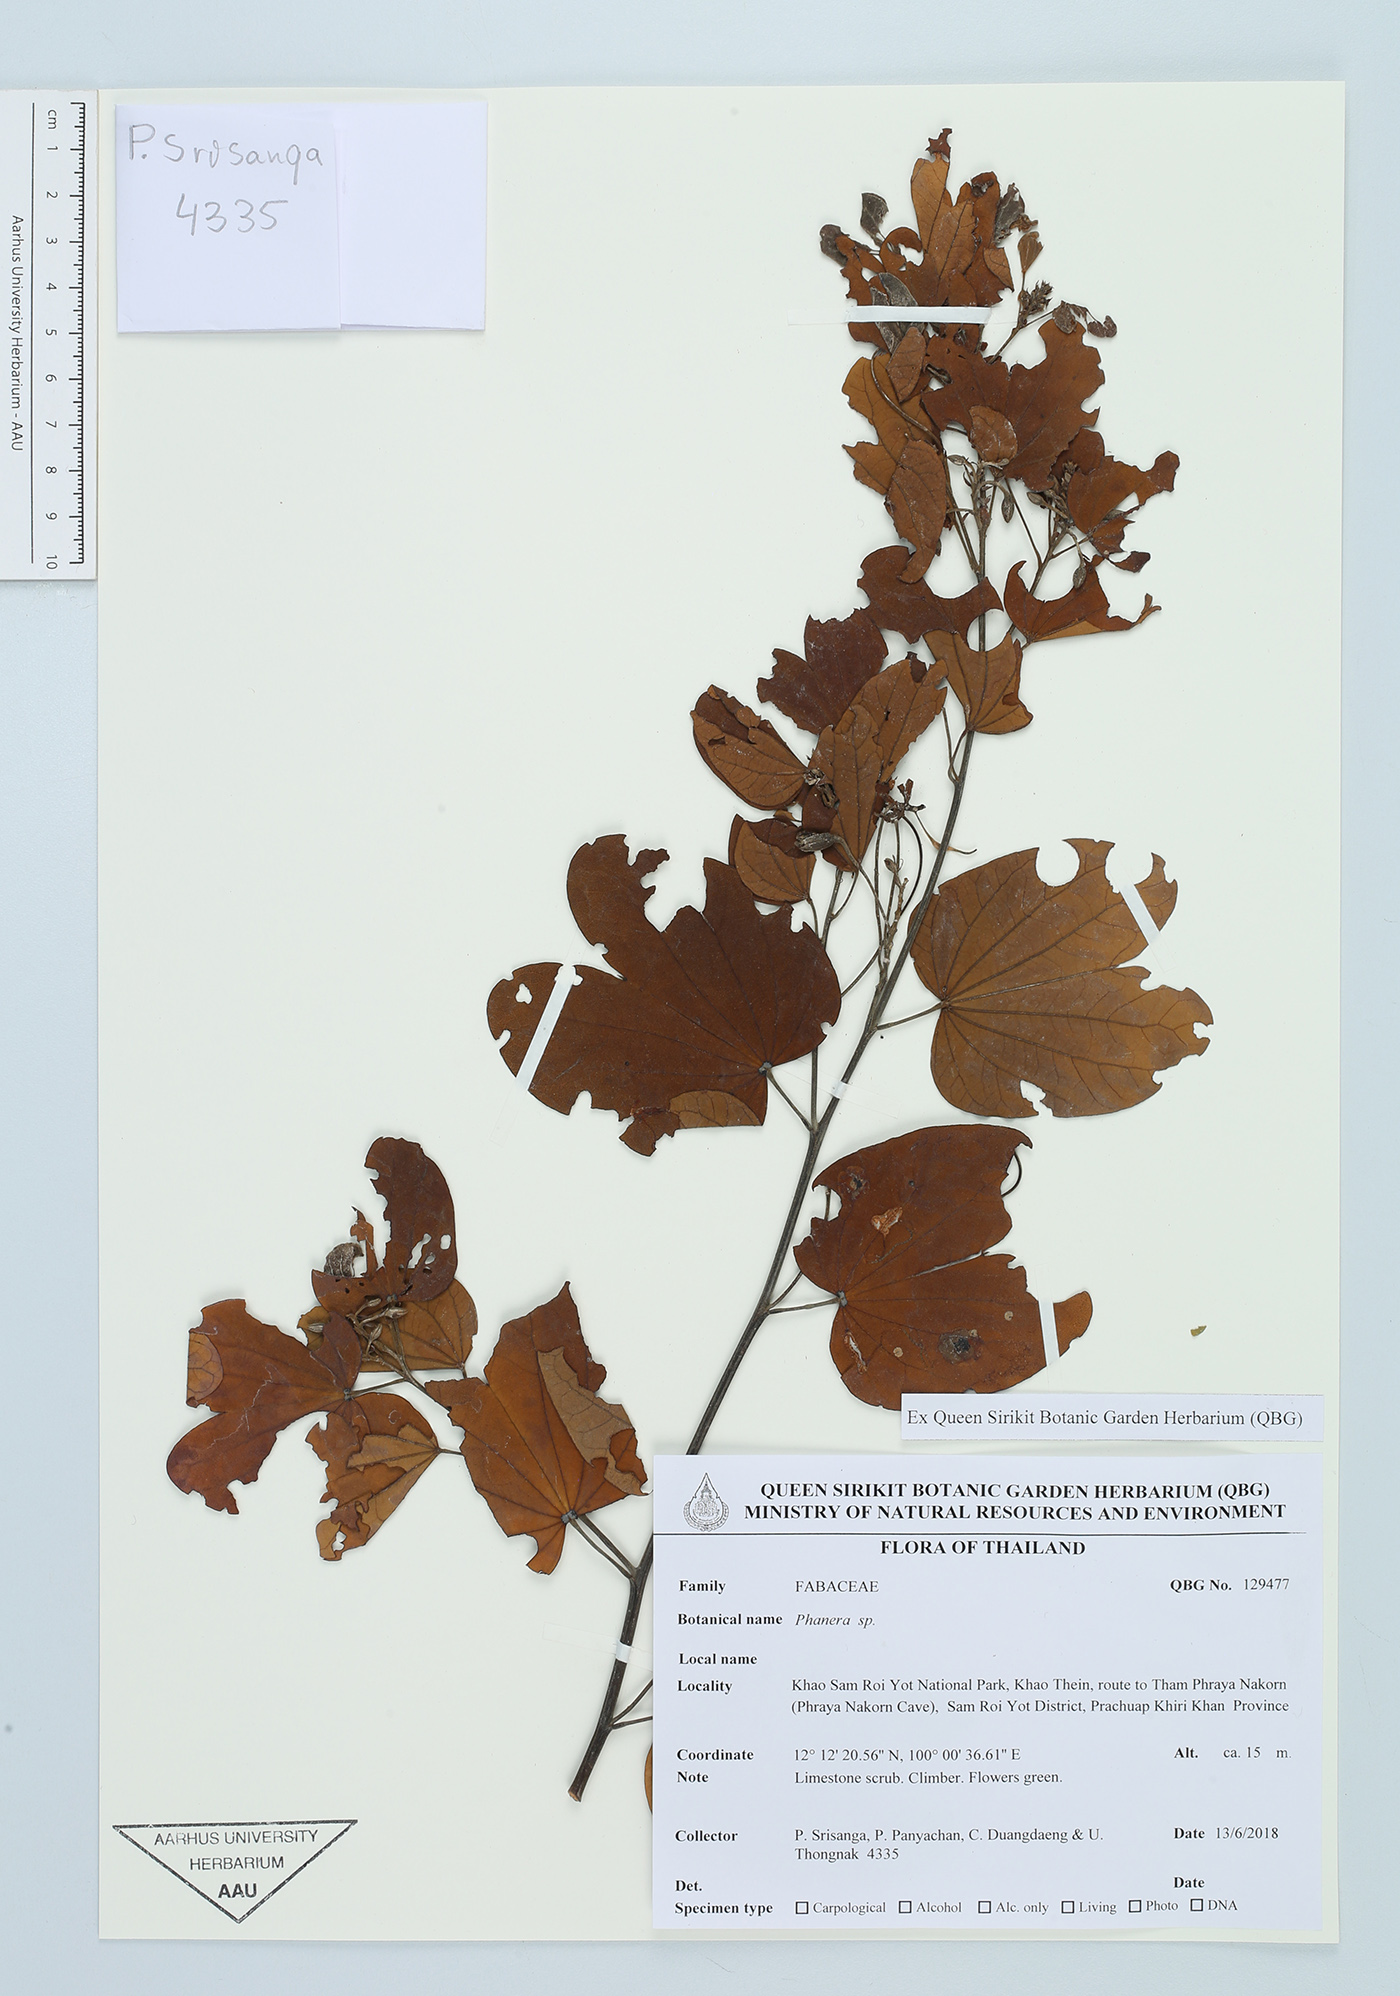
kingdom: Plantae
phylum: Tracheophyta
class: Magnoliopsida
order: Fabales
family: Fabaceae
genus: Phanera
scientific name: Phanera
